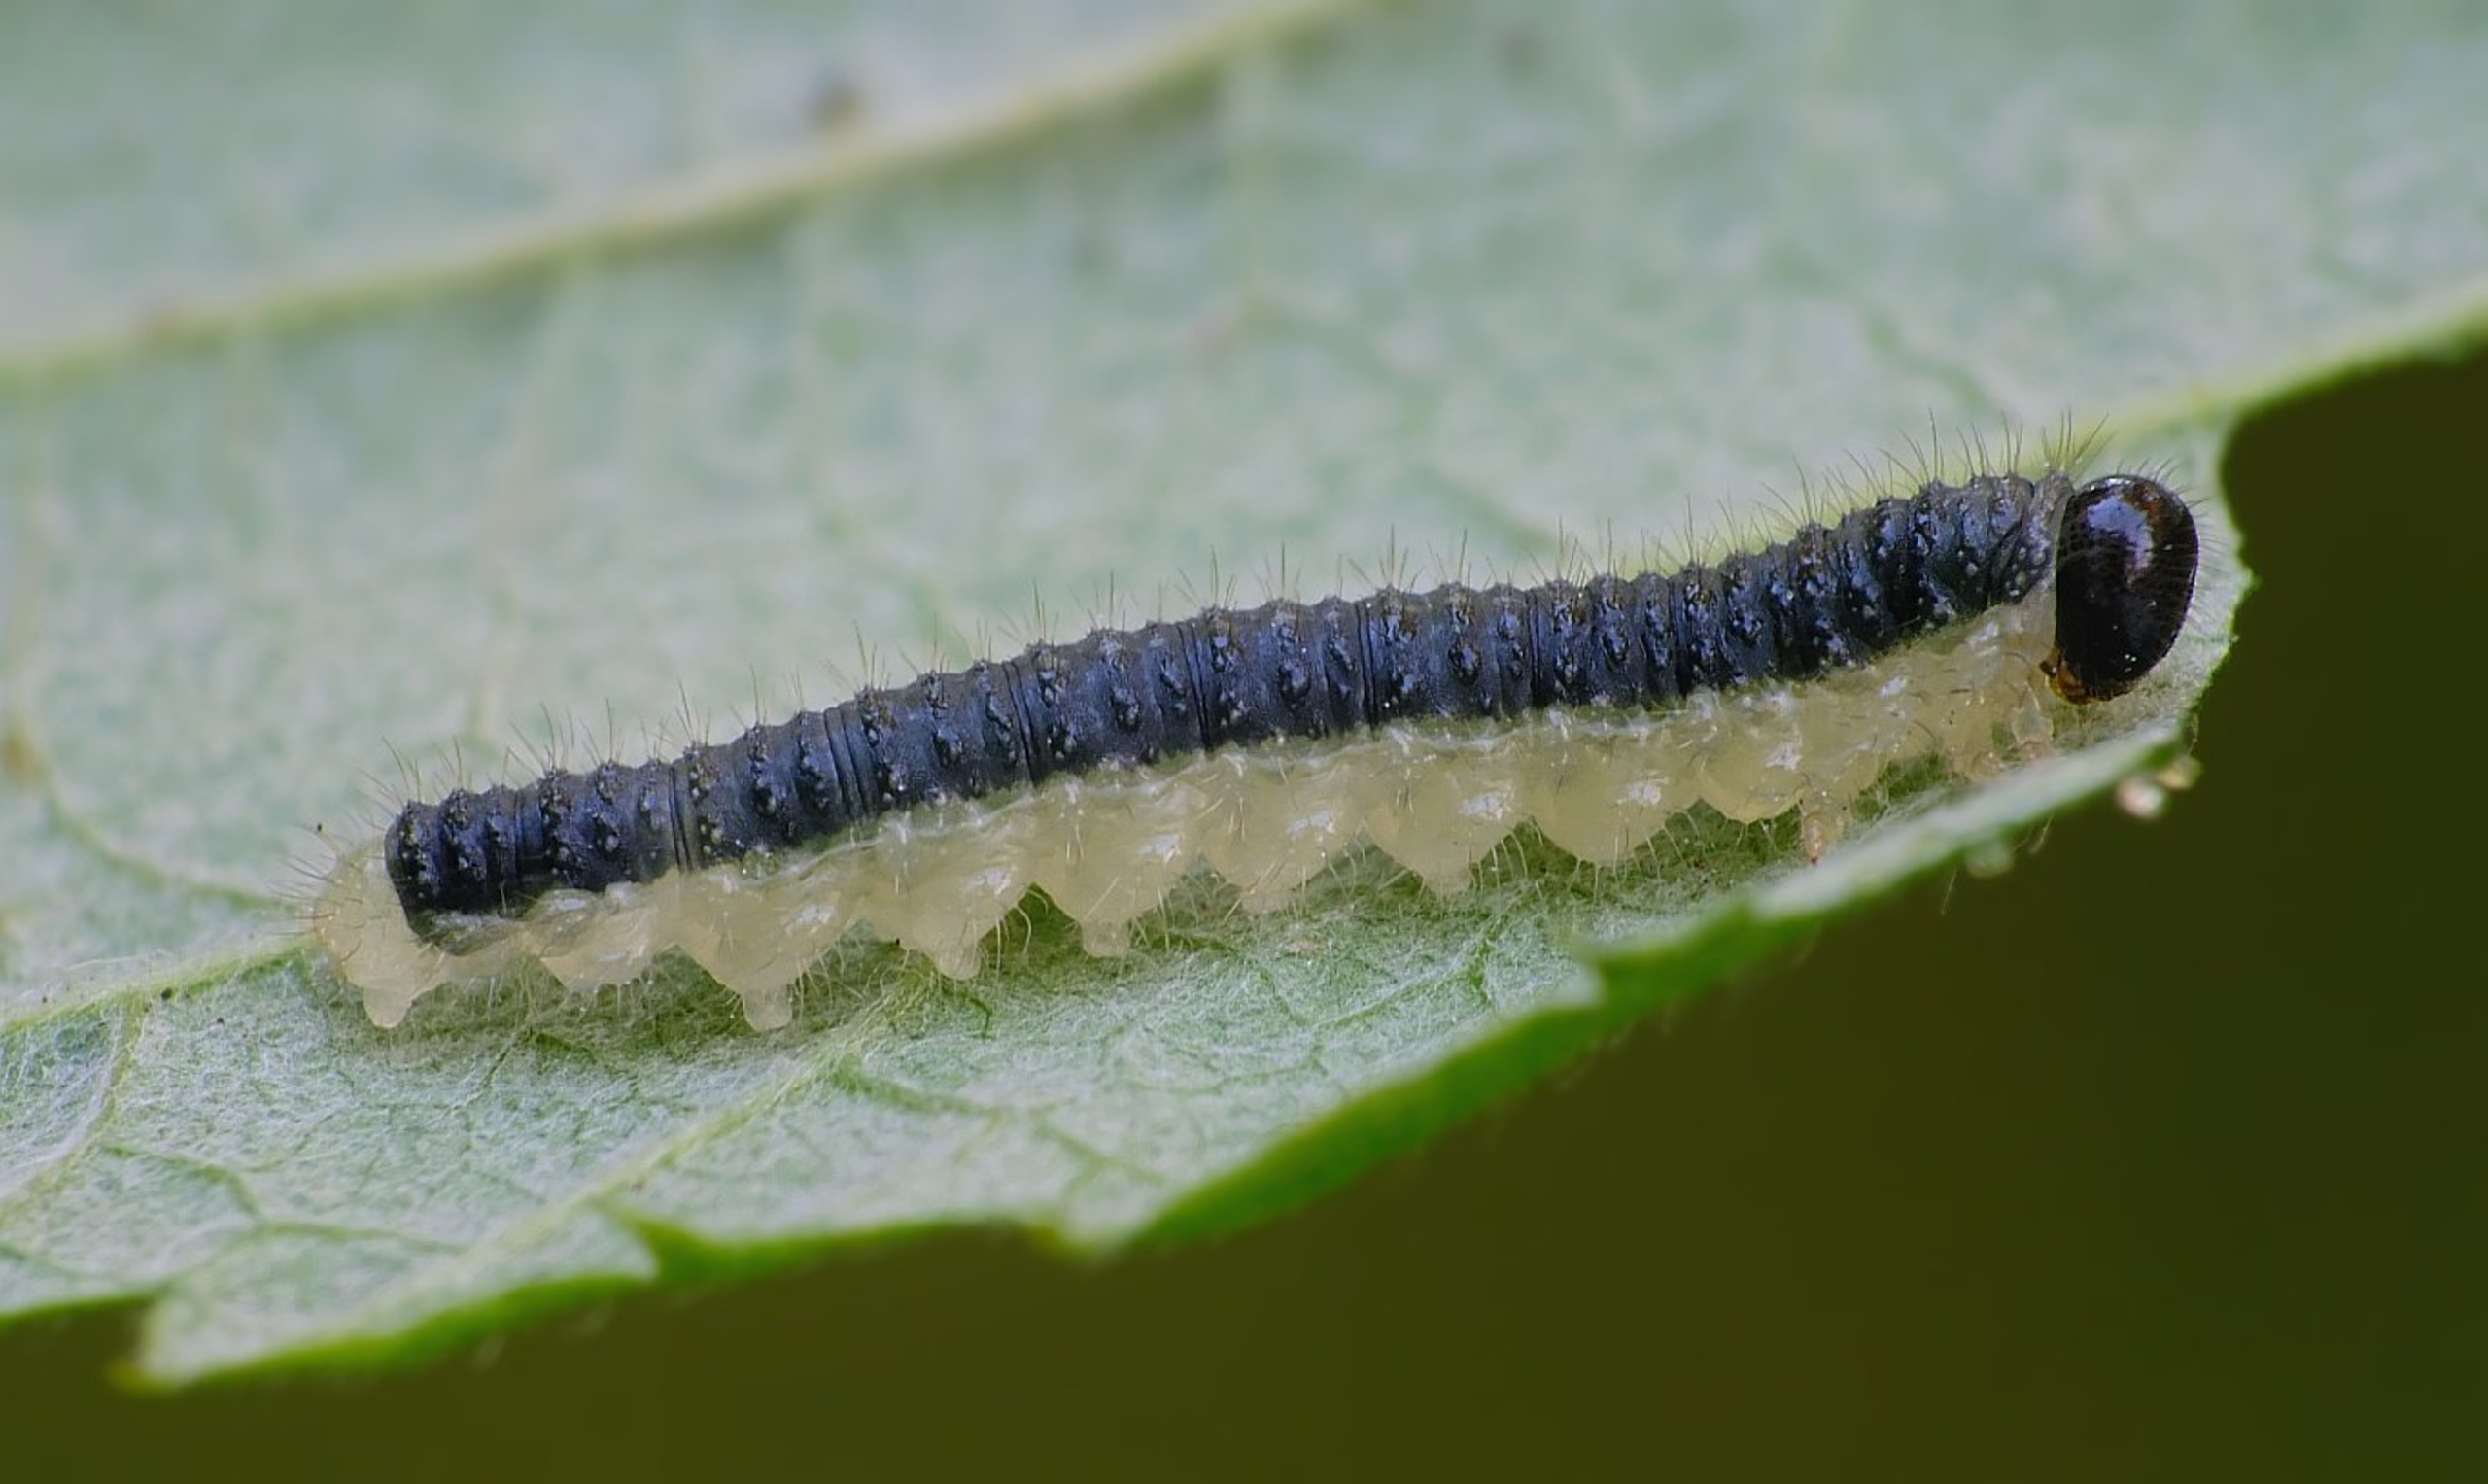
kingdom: Animalia
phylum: Arthropoda
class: Insecta
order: Hymenoptera
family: Tenthredinidae
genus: Cladius
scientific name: Cladius brullei
